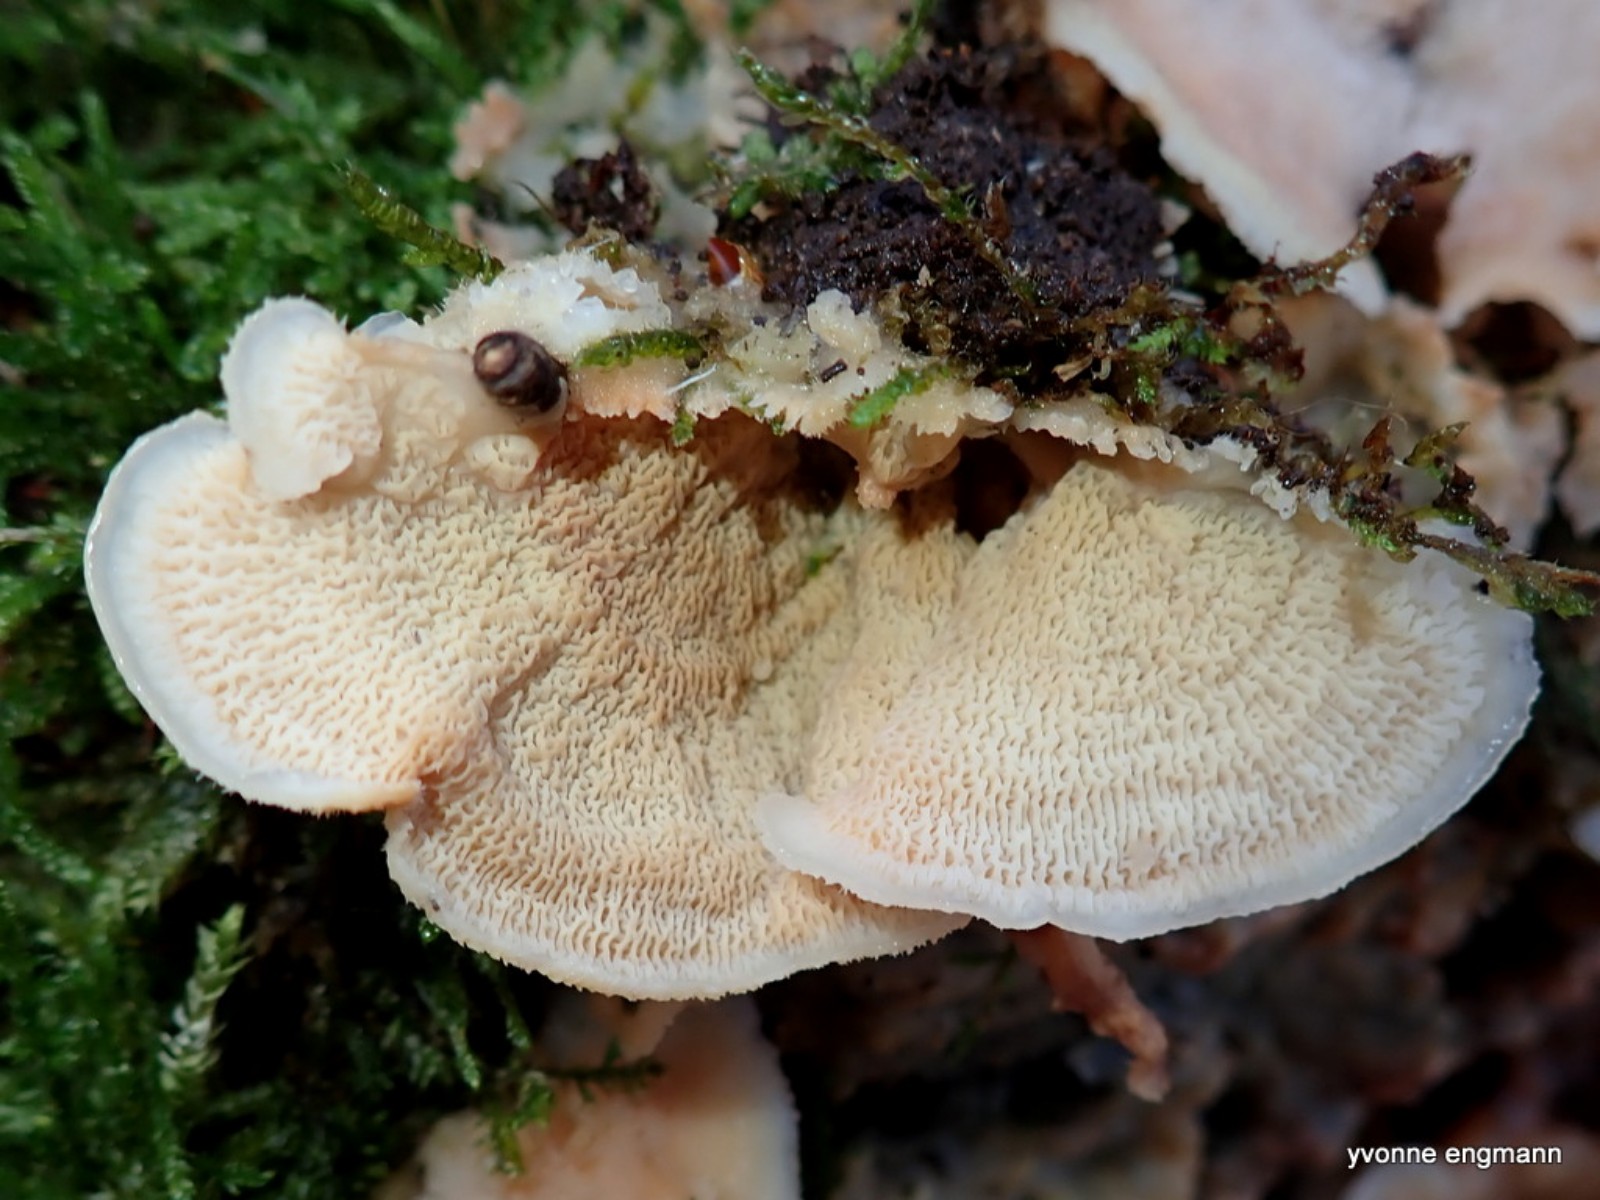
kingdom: Fungi
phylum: Basidiomycota
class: Agaricomycetes
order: Polyporales
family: Meruliaceae
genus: Phlebia
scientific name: Phlebia tremellosa
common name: bævrende åresvamp
